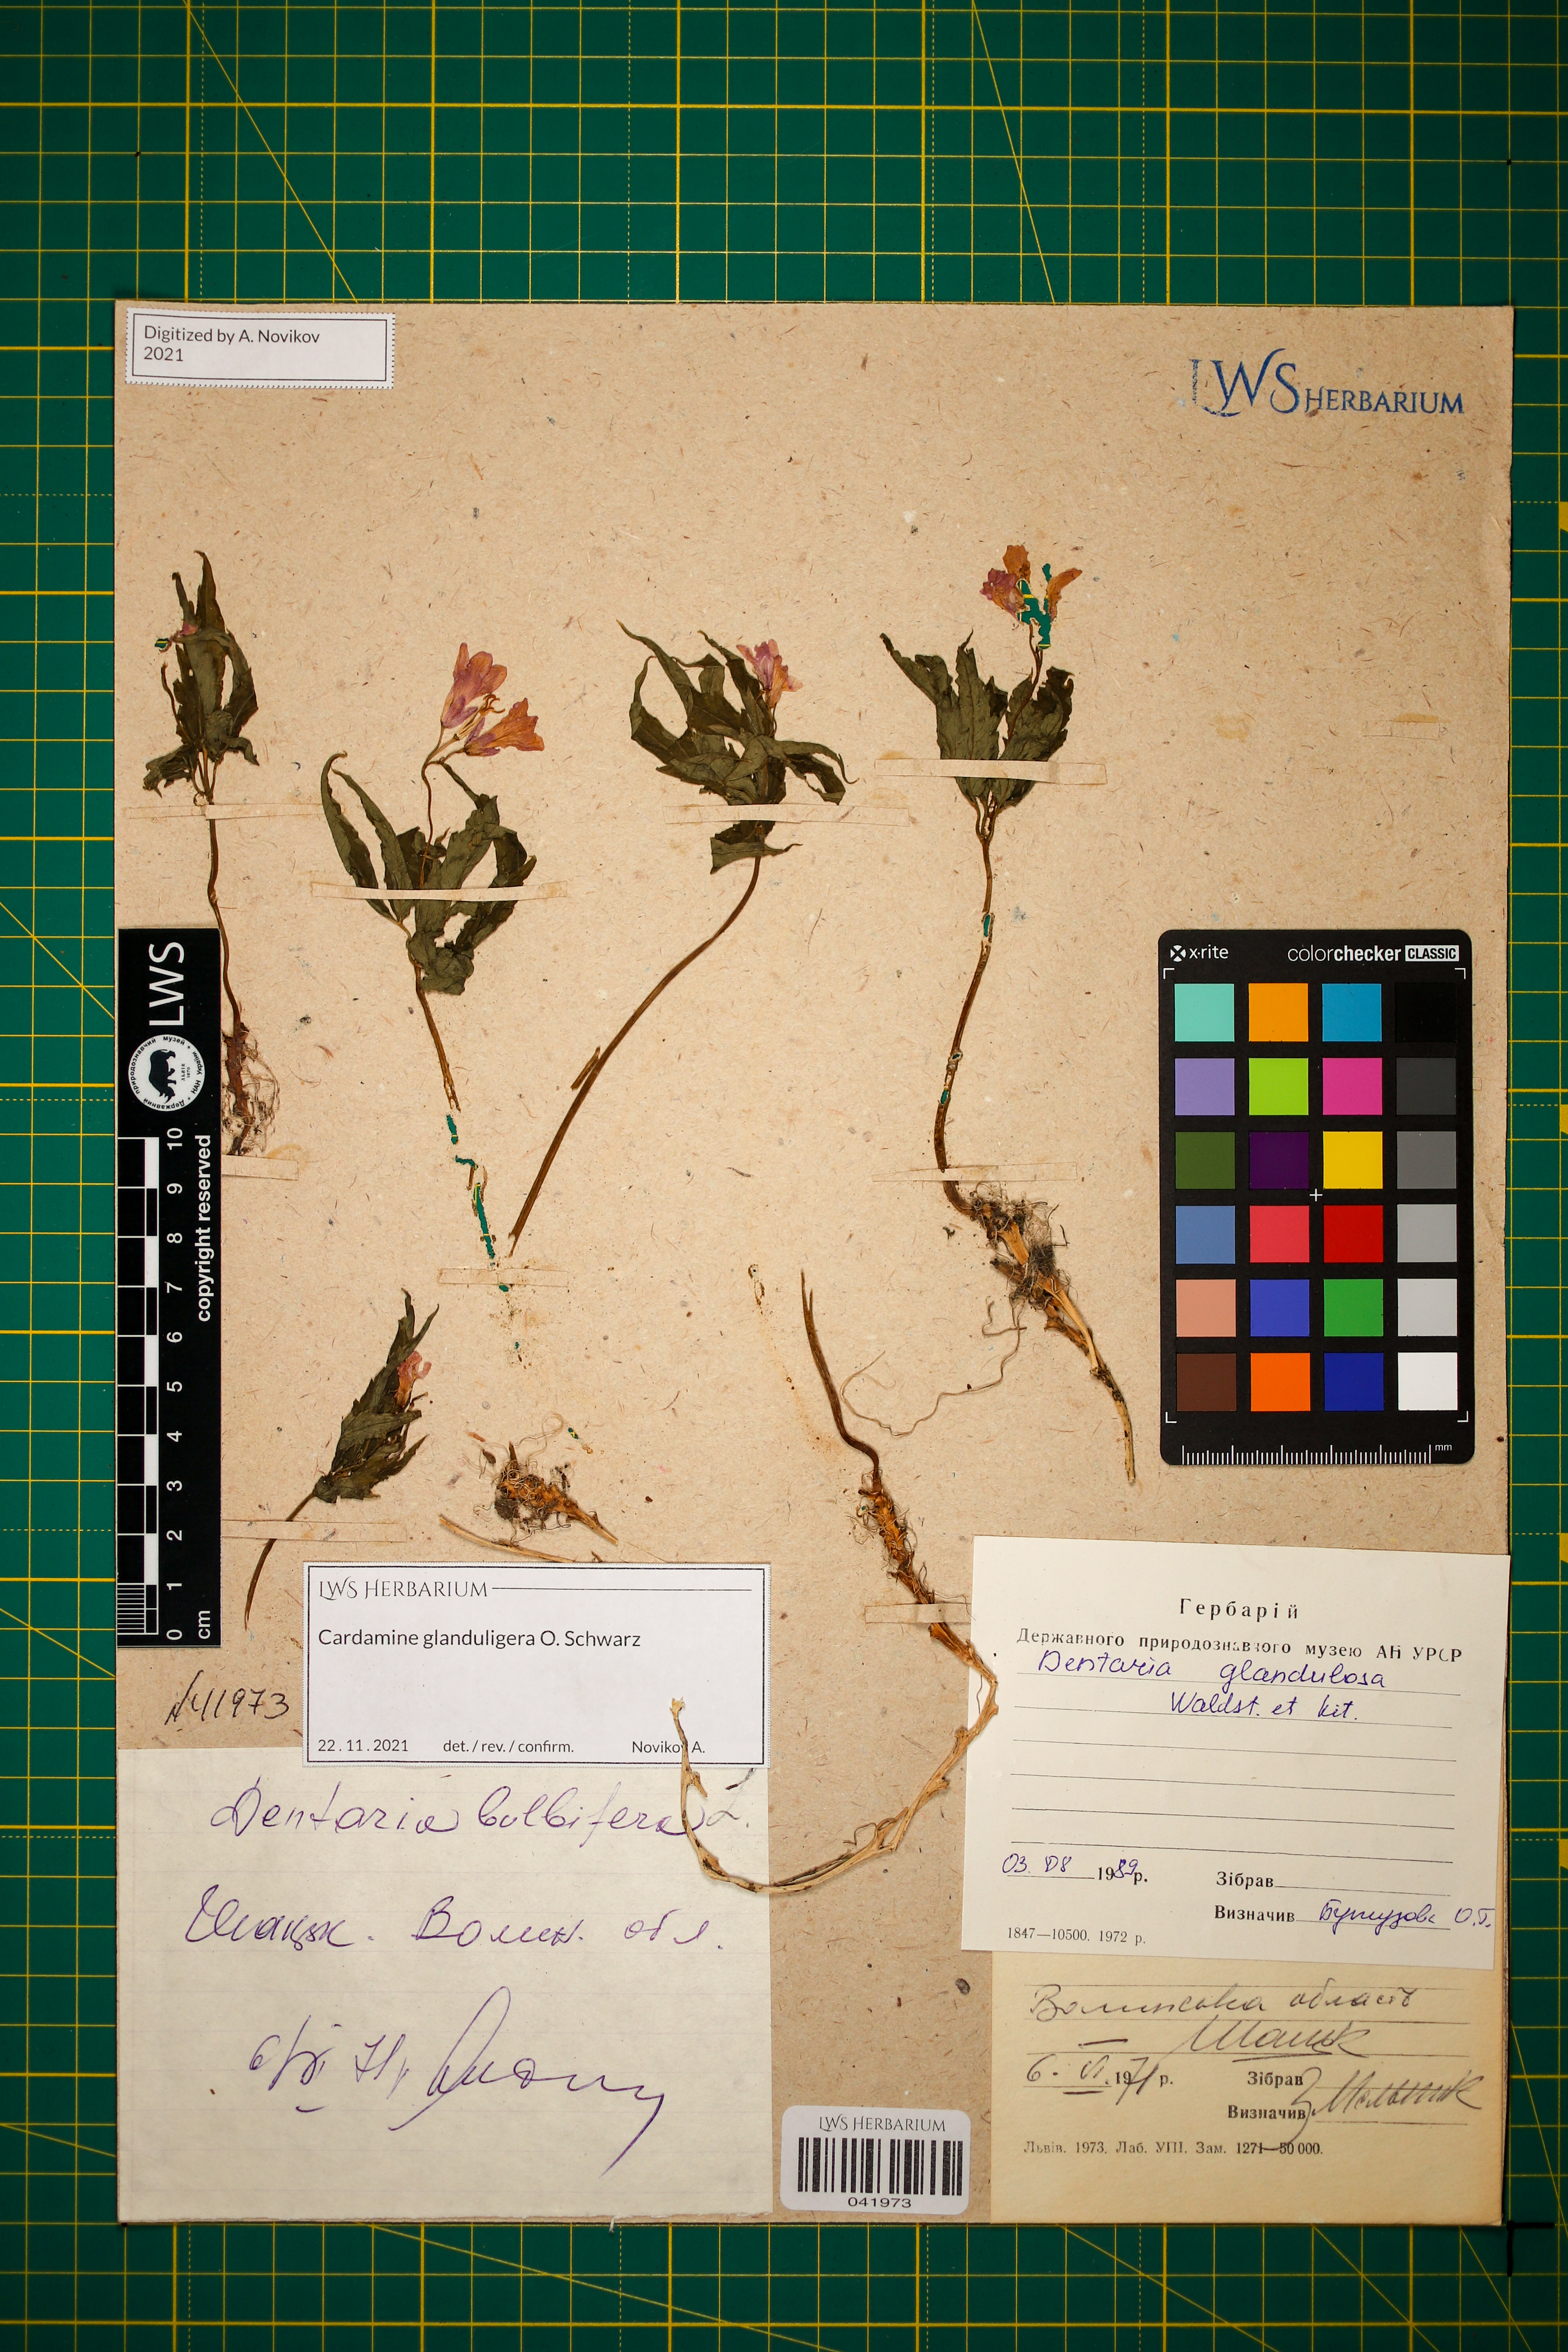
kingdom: Plantae
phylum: Tracheophyta
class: Magnoliopsida
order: Brassicales
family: Brassicaceae
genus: Cardamine
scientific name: Cardamine glanduligera
